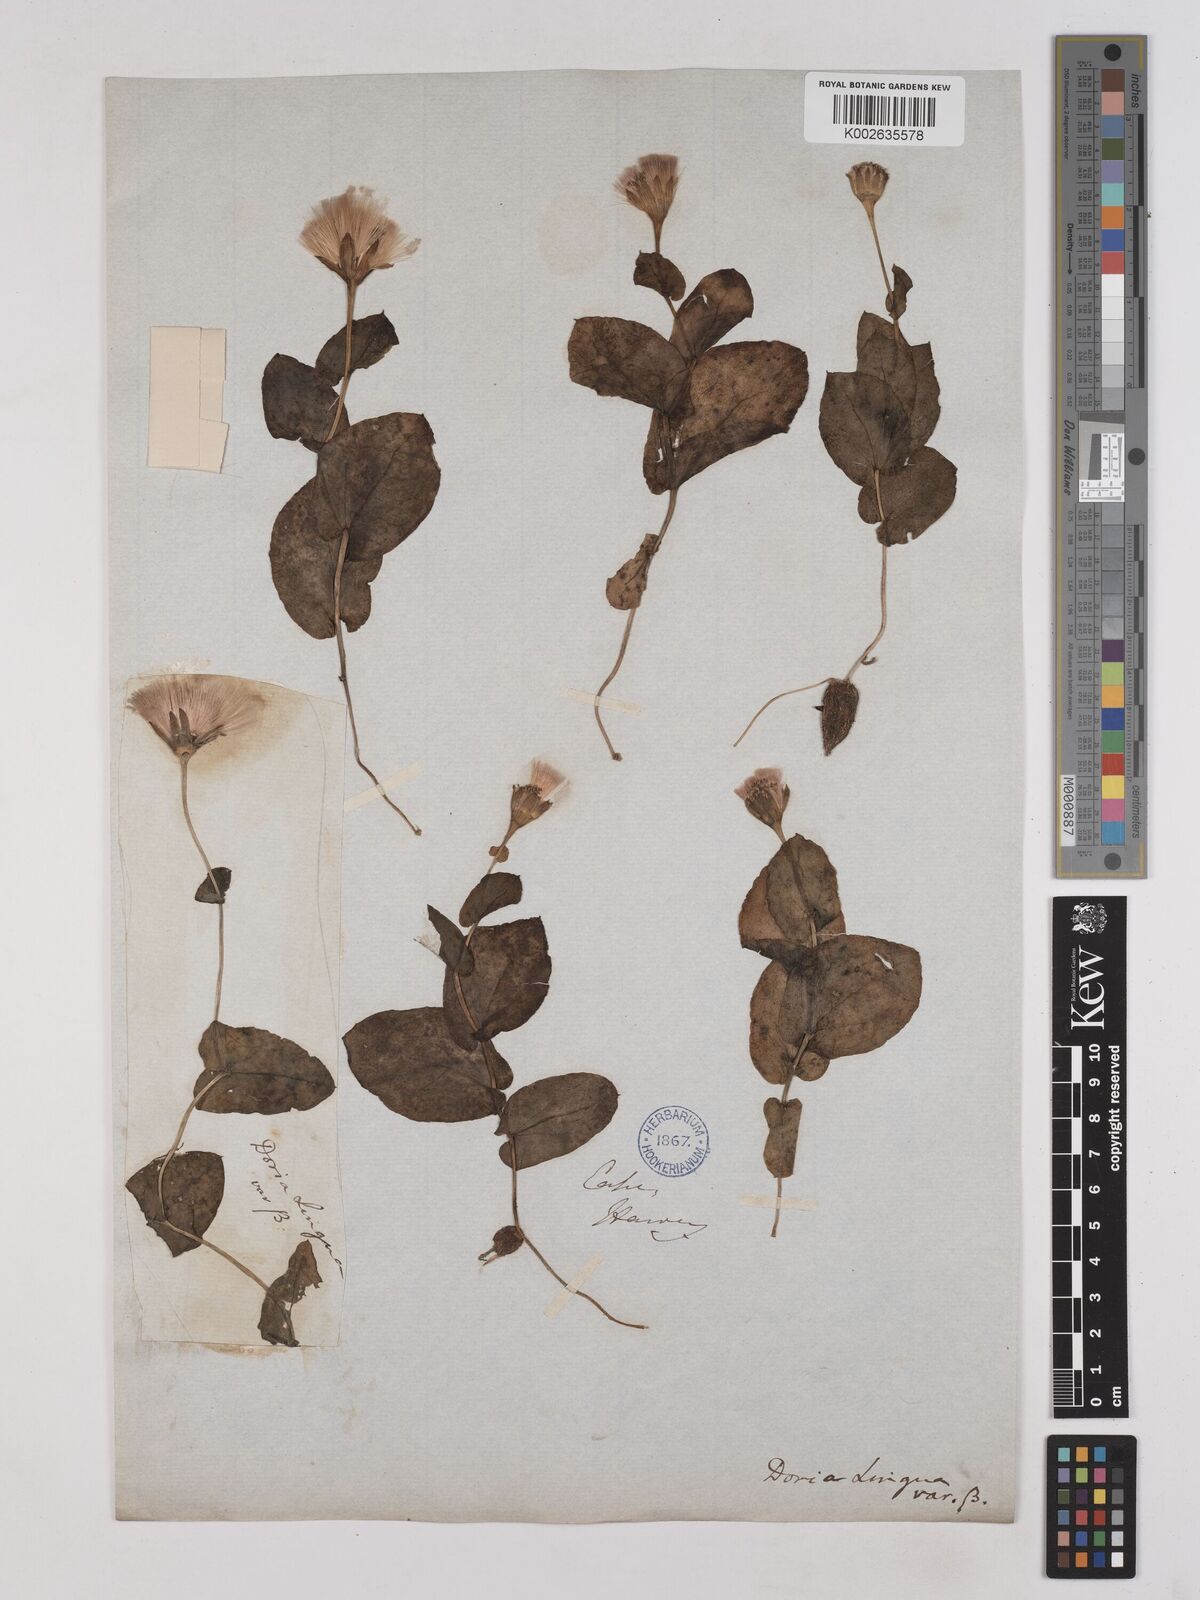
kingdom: Plantae
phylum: Tracheophyta
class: Magnoliopsida
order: Asterales
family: Asteraceae
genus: Othonna
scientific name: Othonna bulbosa
